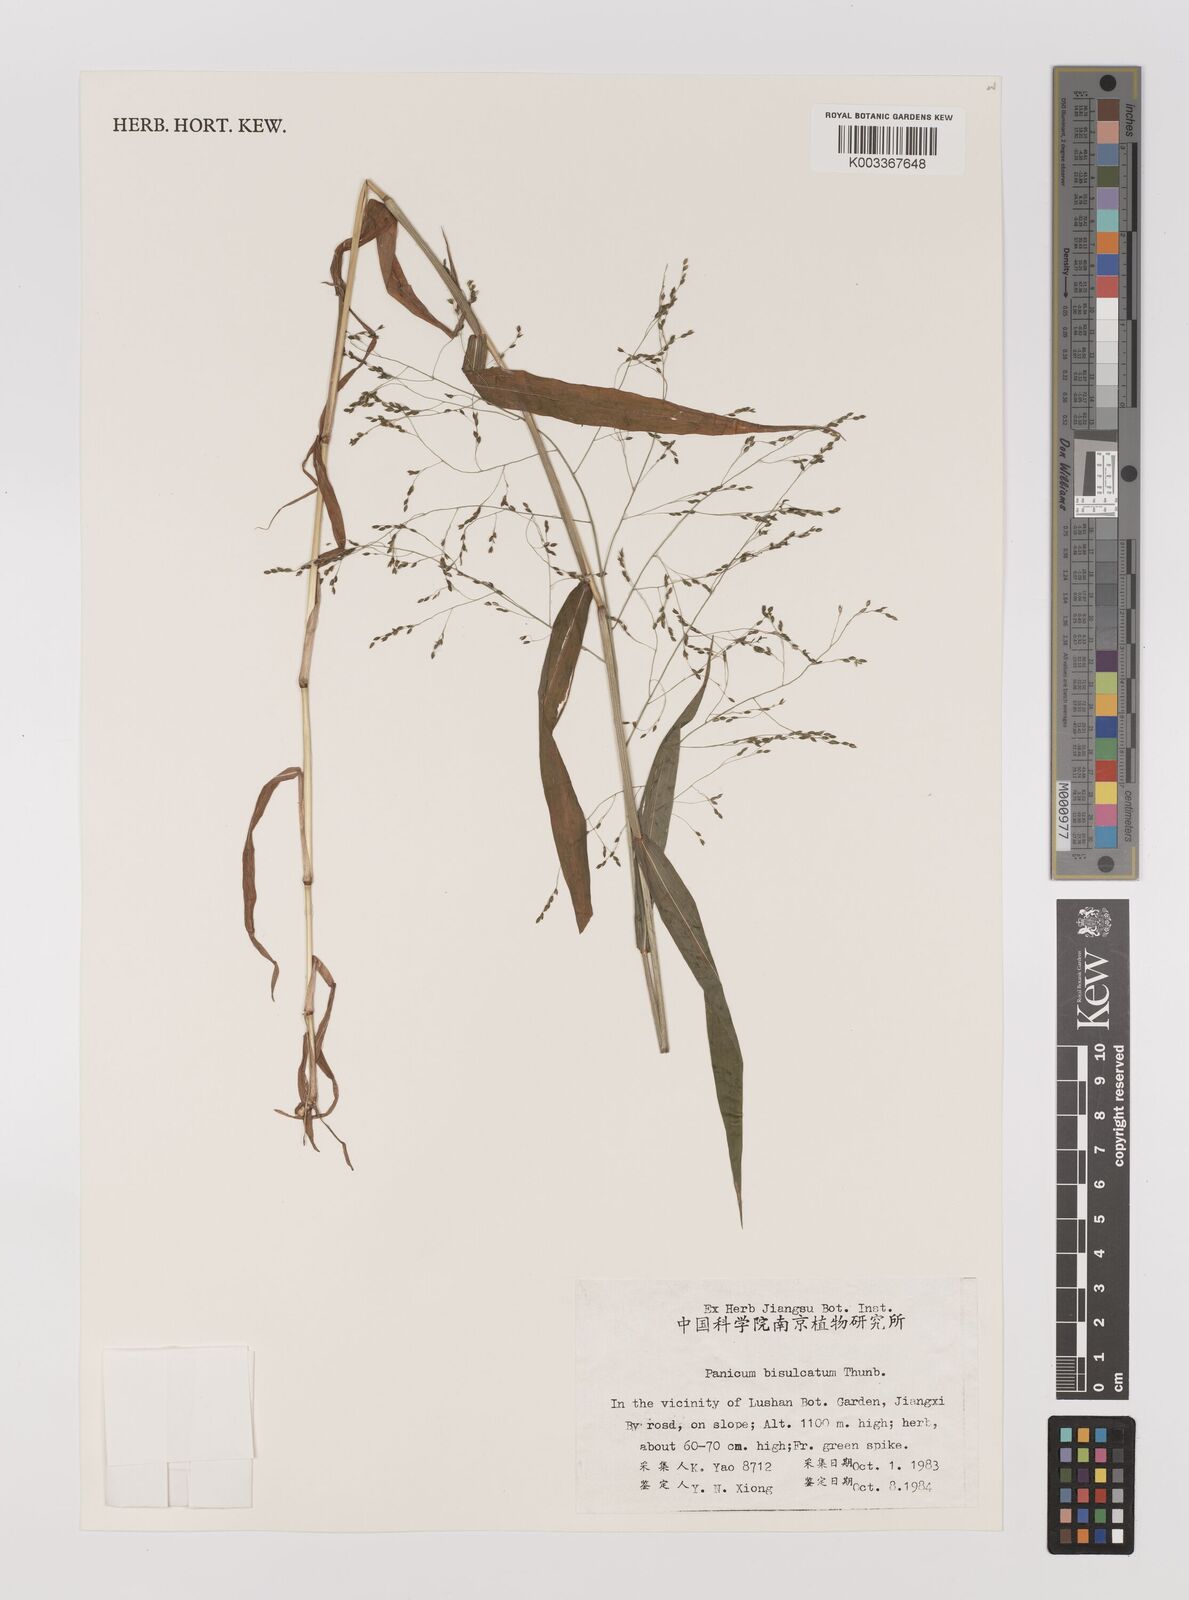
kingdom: Plantae
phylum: Tracheophyta
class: Liliopsida
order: Poales
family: Poaceae
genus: Panicum
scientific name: Panicum bisulcatum
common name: Japanese panicgrass
